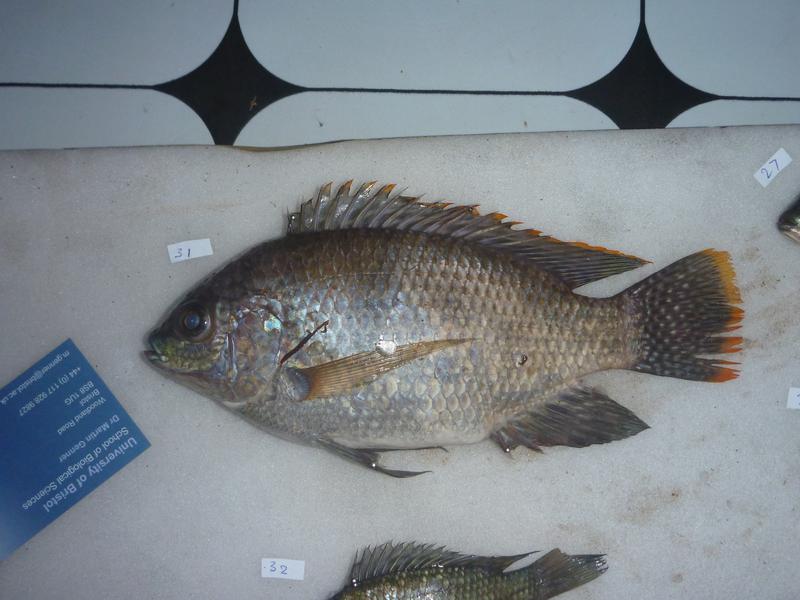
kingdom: Animalia
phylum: Chordata
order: Perciformes
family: Cichlidae
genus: Oreochromis
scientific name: Oreochromis upembae
